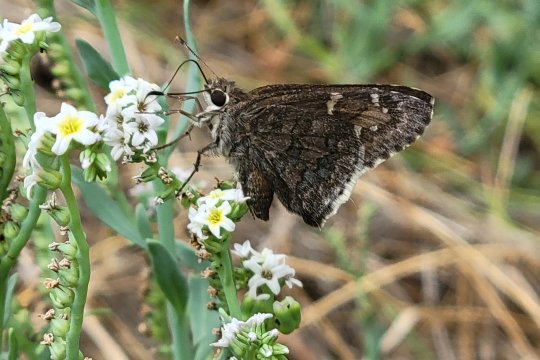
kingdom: Animalia
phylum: Arthropoda
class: Insecta
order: Lepidoptera
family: Hesperiidae
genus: Cogia
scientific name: Cogia hippalus
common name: Acacia Skipper
